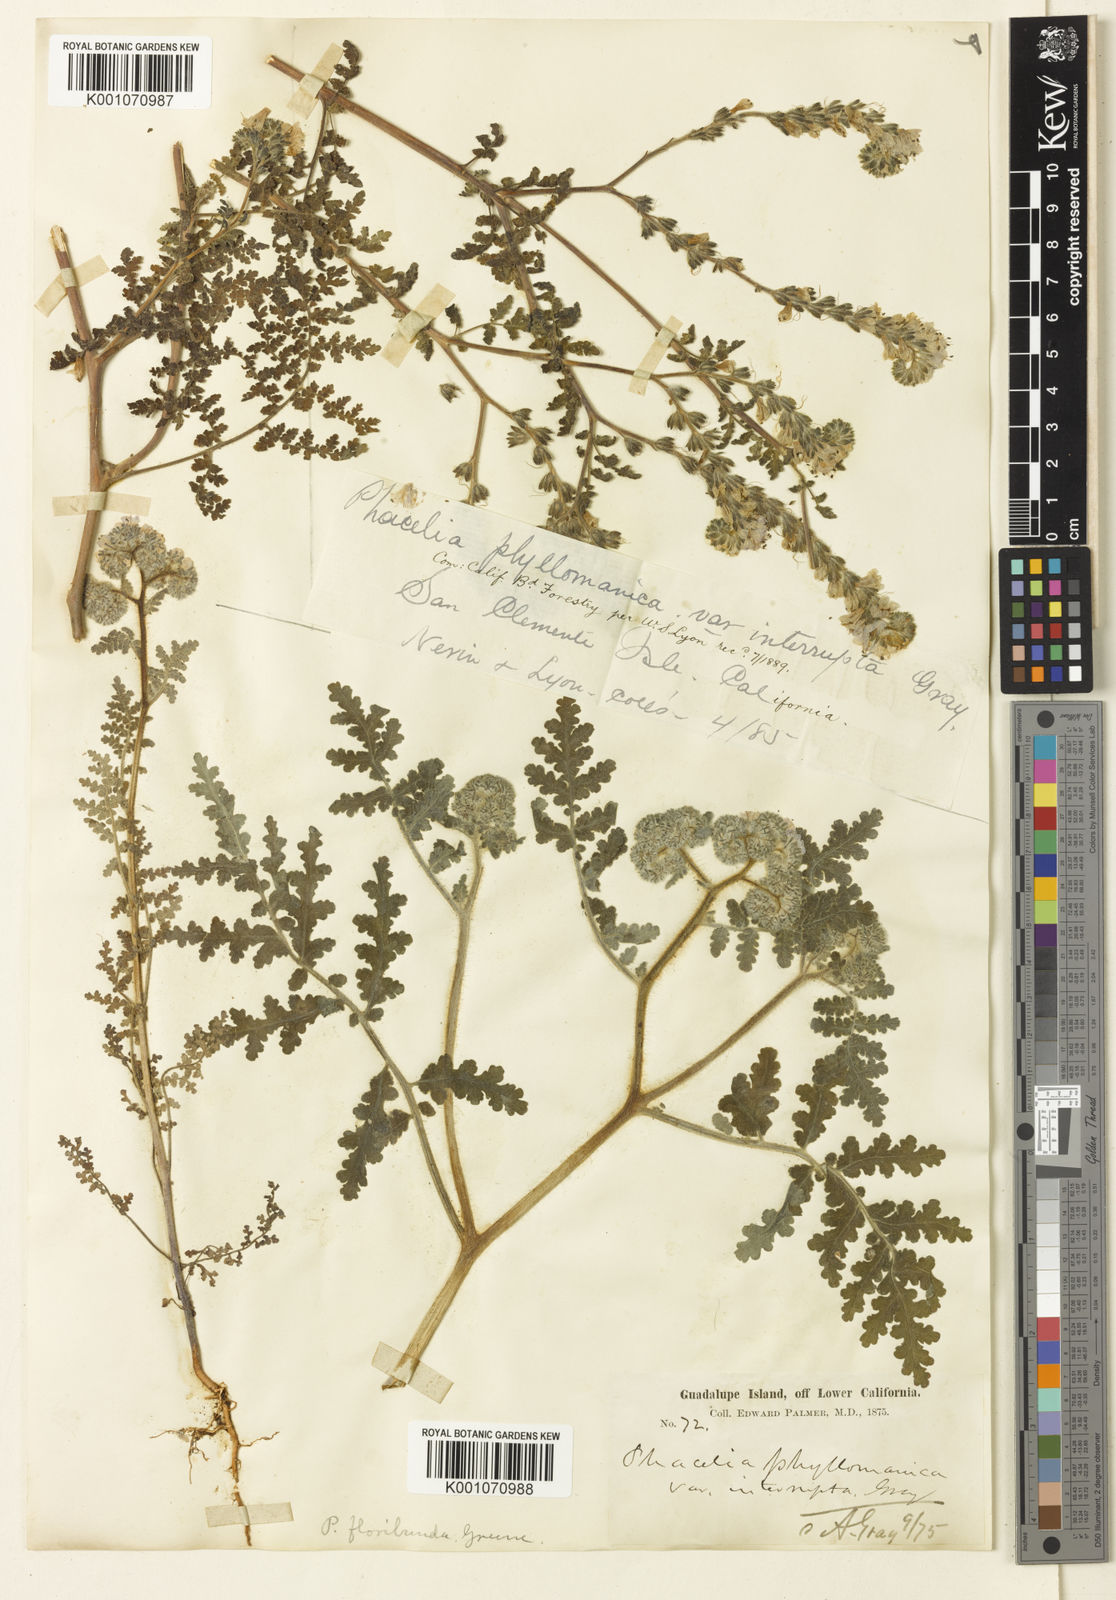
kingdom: Plantae
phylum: Tracheophyta
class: Magnoliopsida
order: Boraginales
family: Hydrophyllaceae
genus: Phacelia
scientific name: Phacelia floribunda
